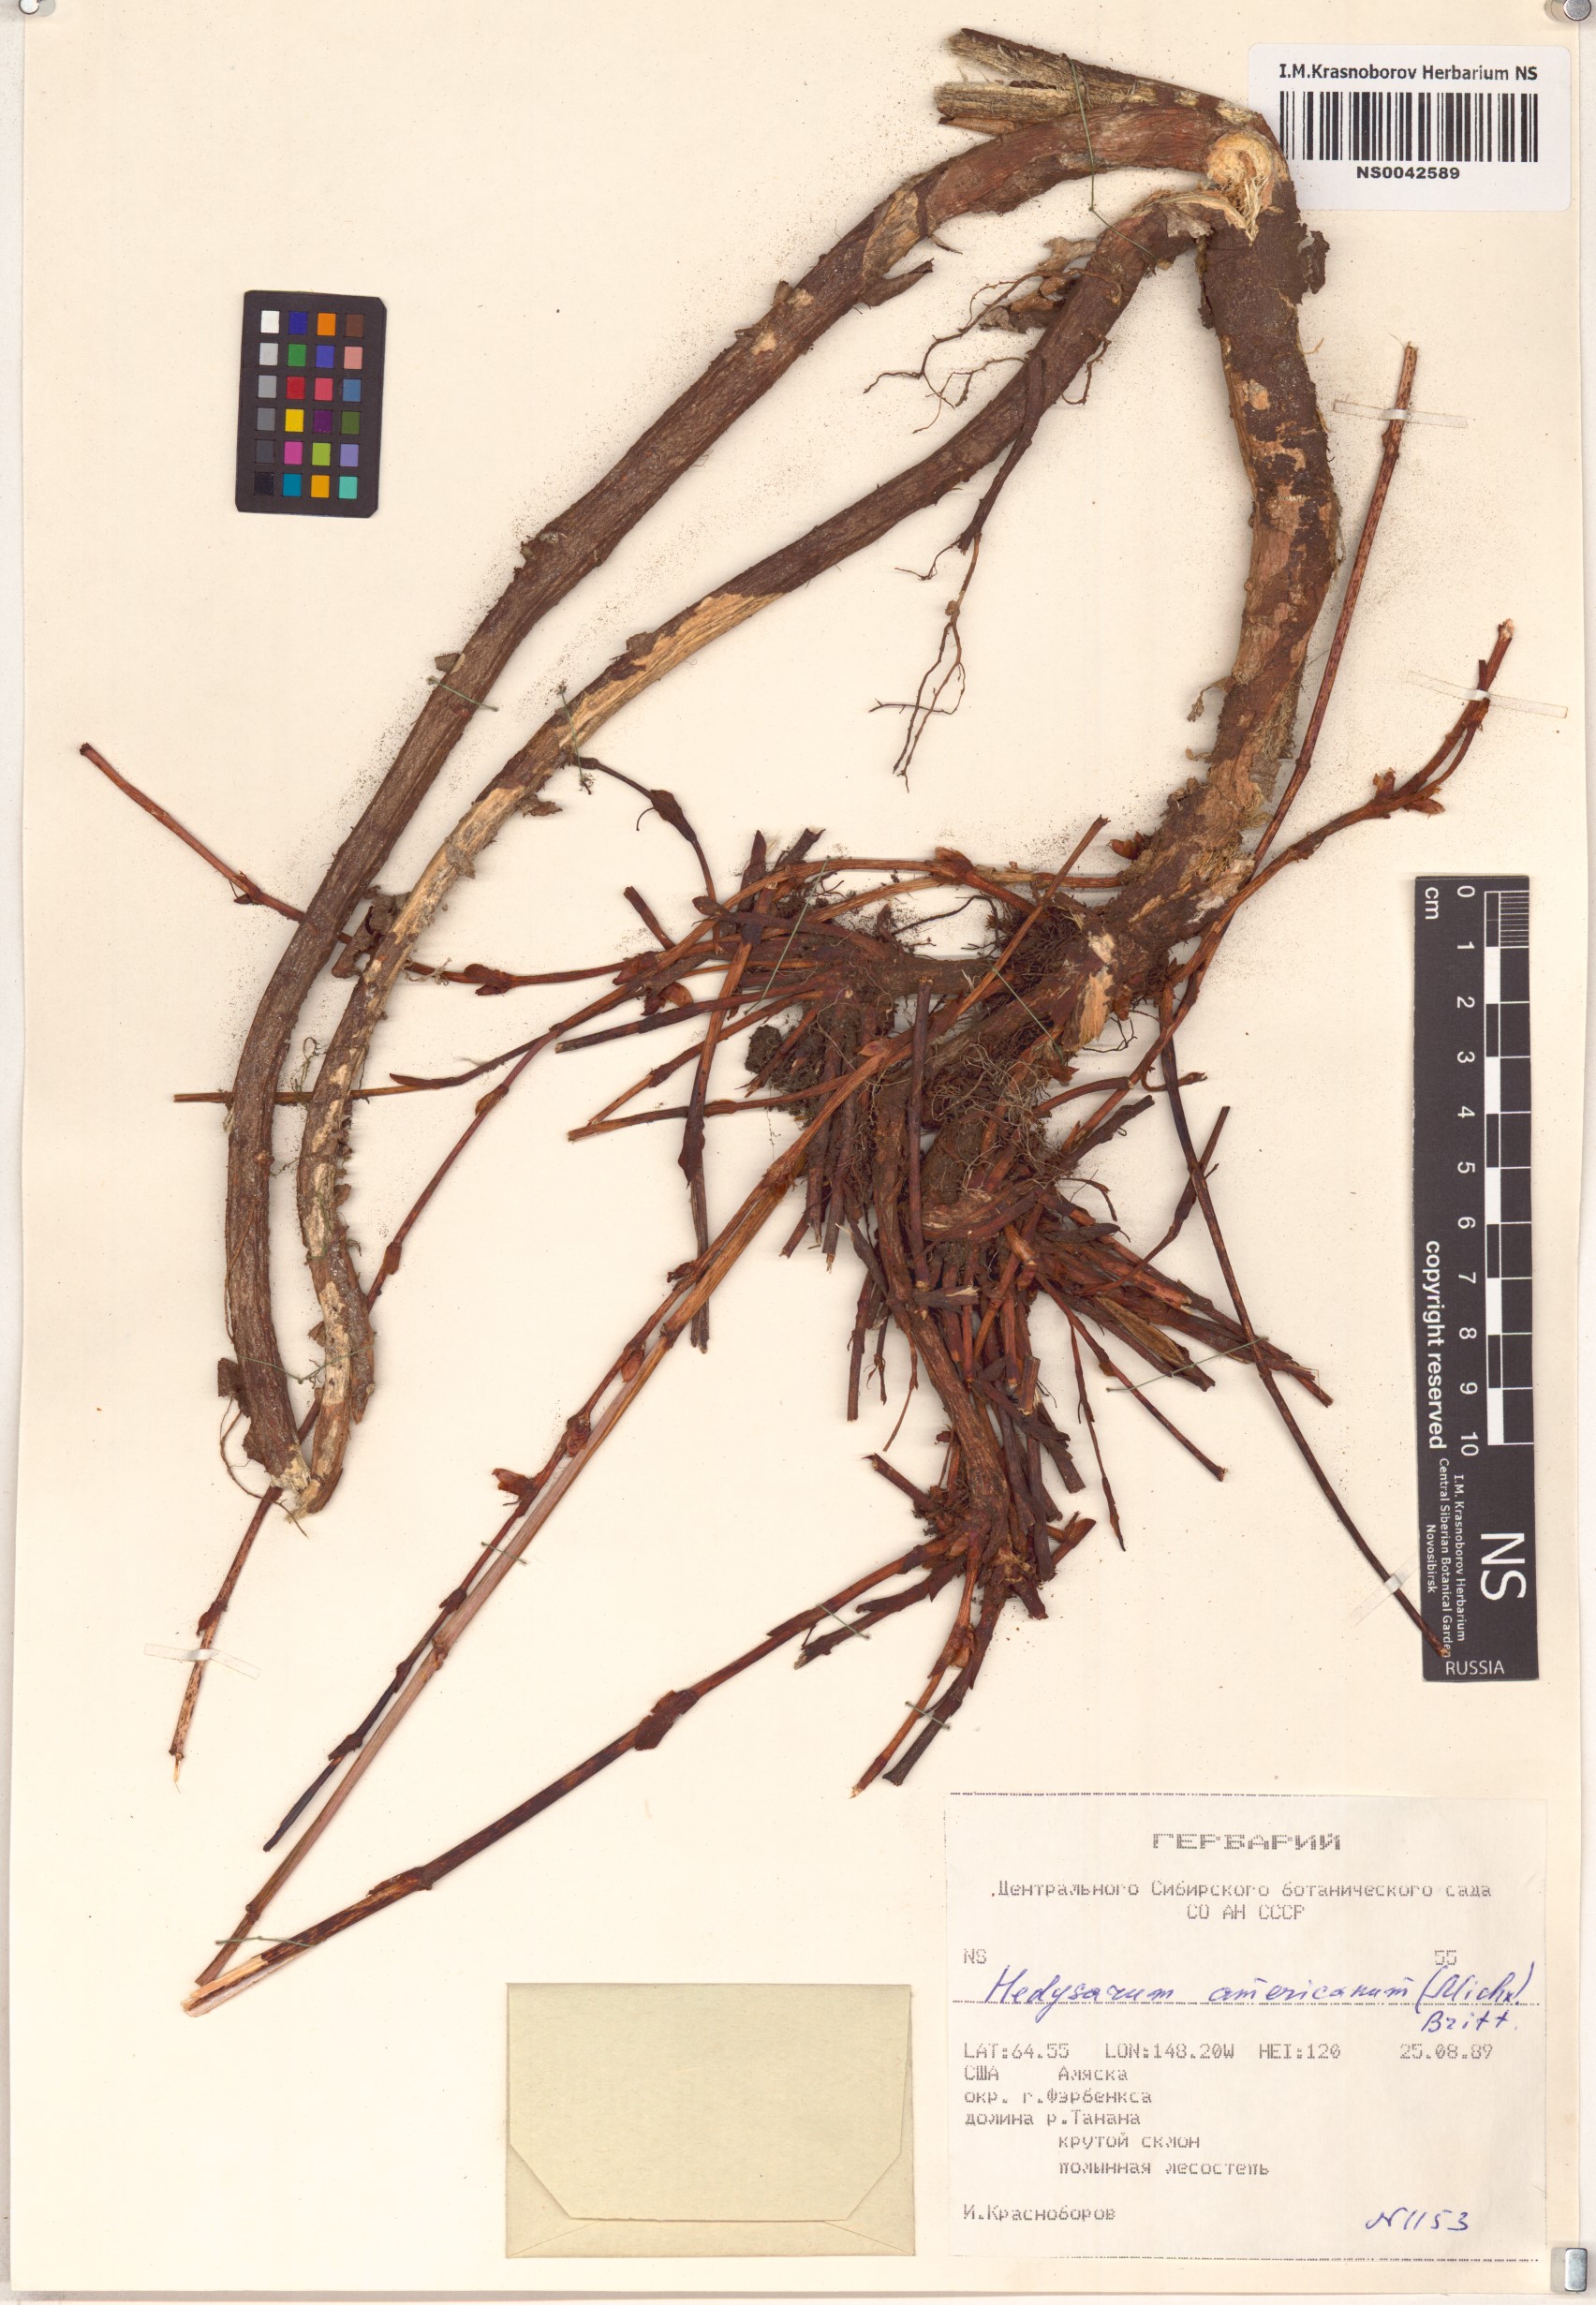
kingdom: Plantae
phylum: Tracheophyta
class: Magnoliopsida
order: Fabales
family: Fabaceae
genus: Hedysarum
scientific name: Hedysarum americanum
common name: Alpine hedysarum
